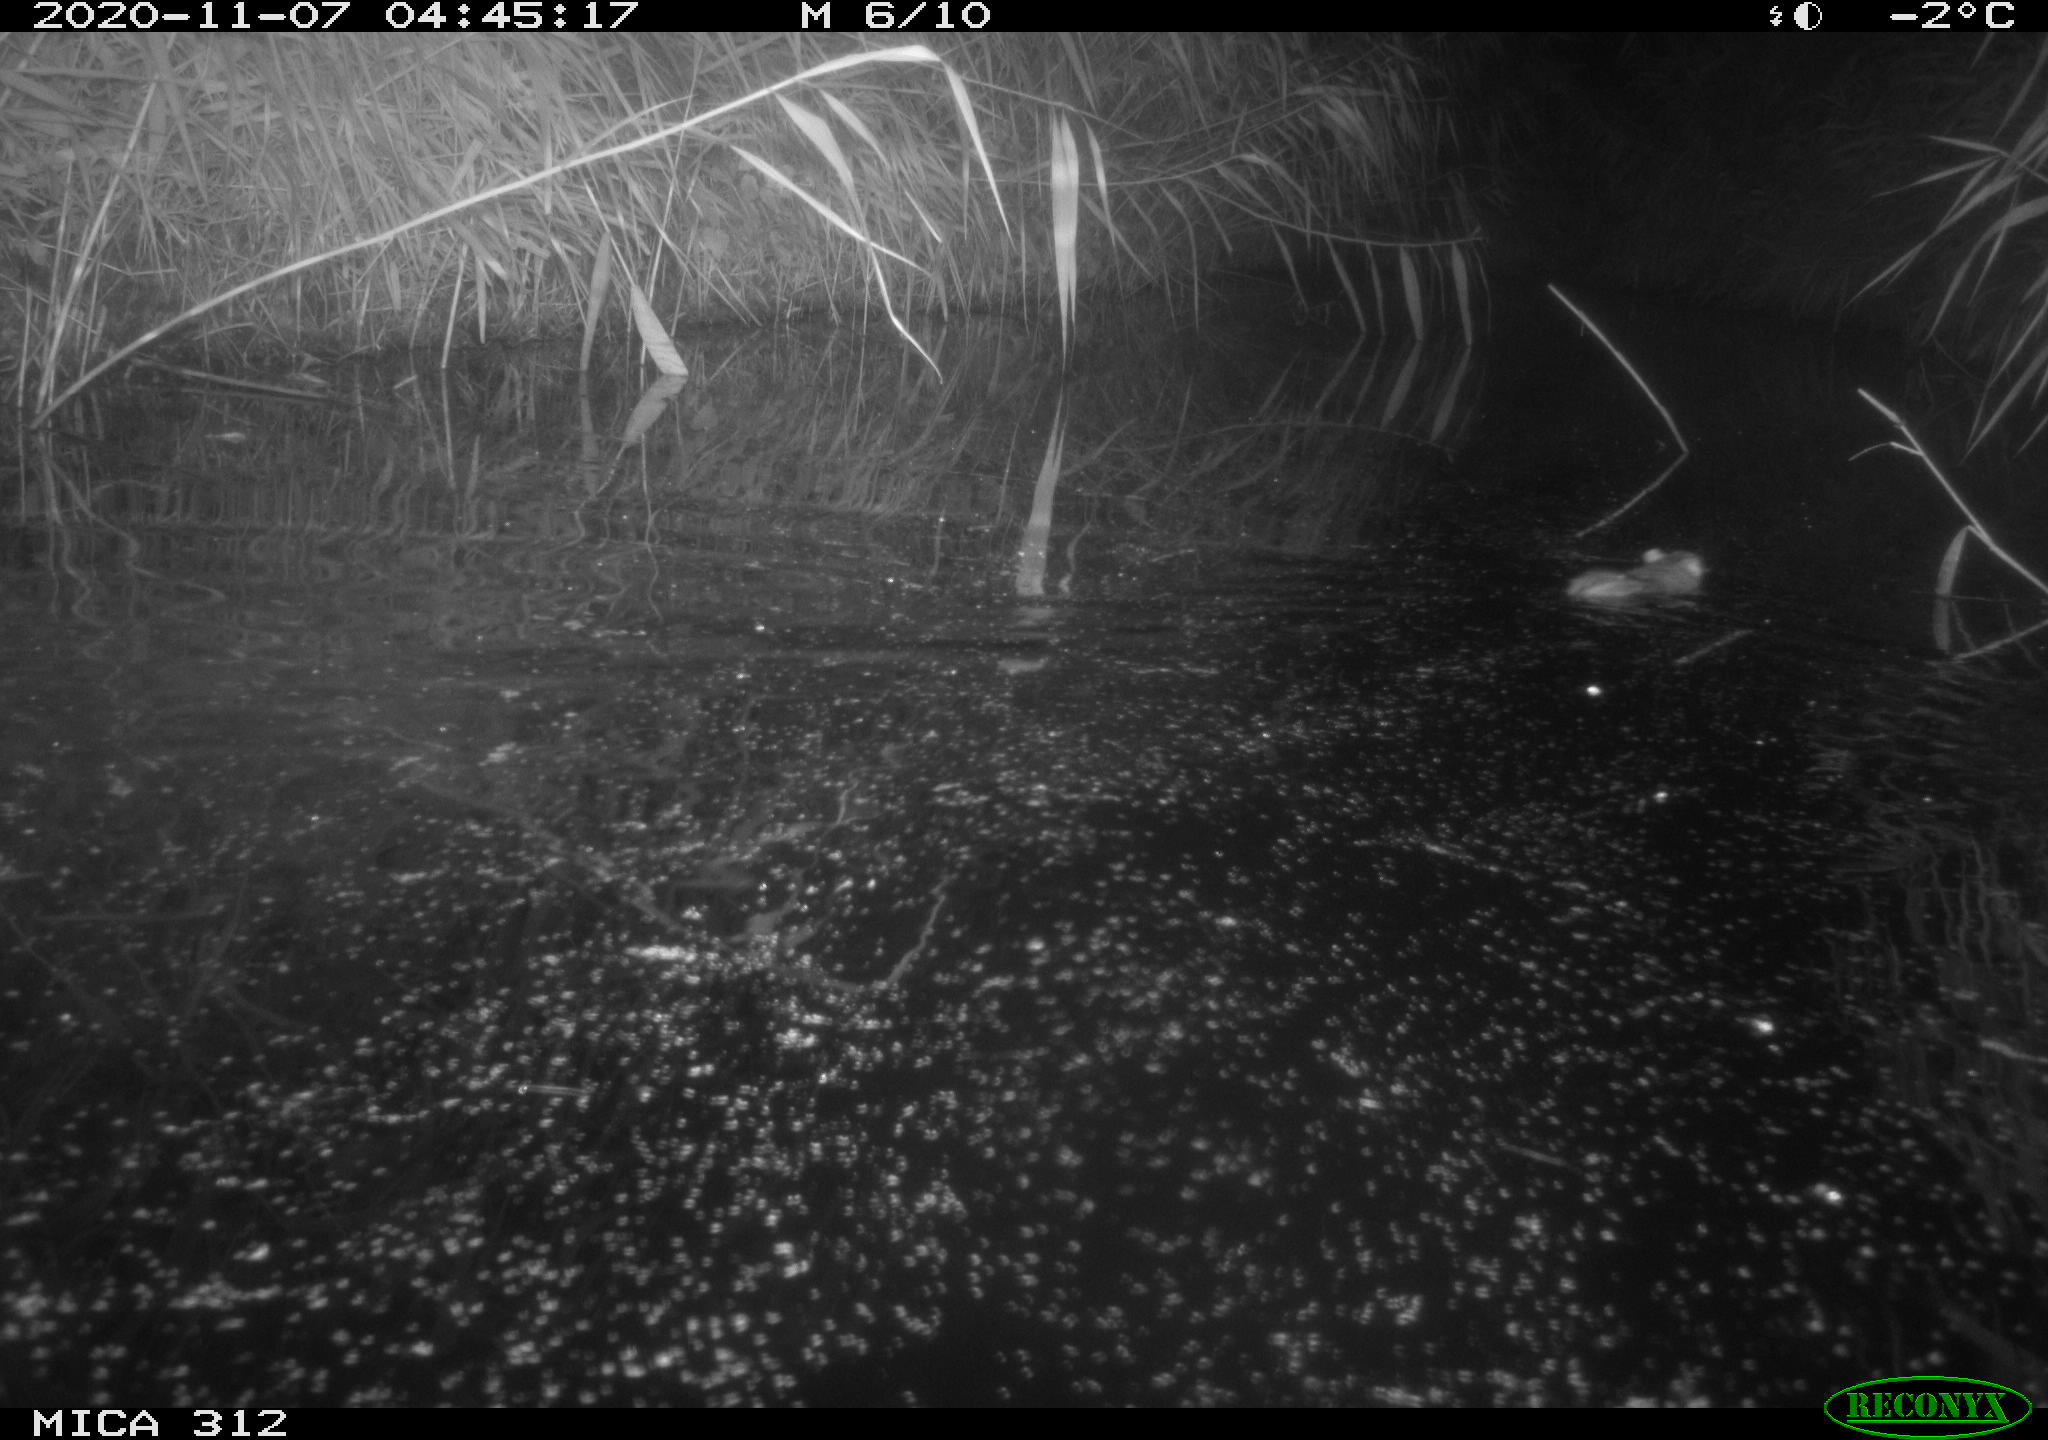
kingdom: Animalia
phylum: Chordata
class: Mammalia
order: Rodentia
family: Muridae
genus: Rattus
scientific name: Rattus norvegicus
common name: Brown rat
